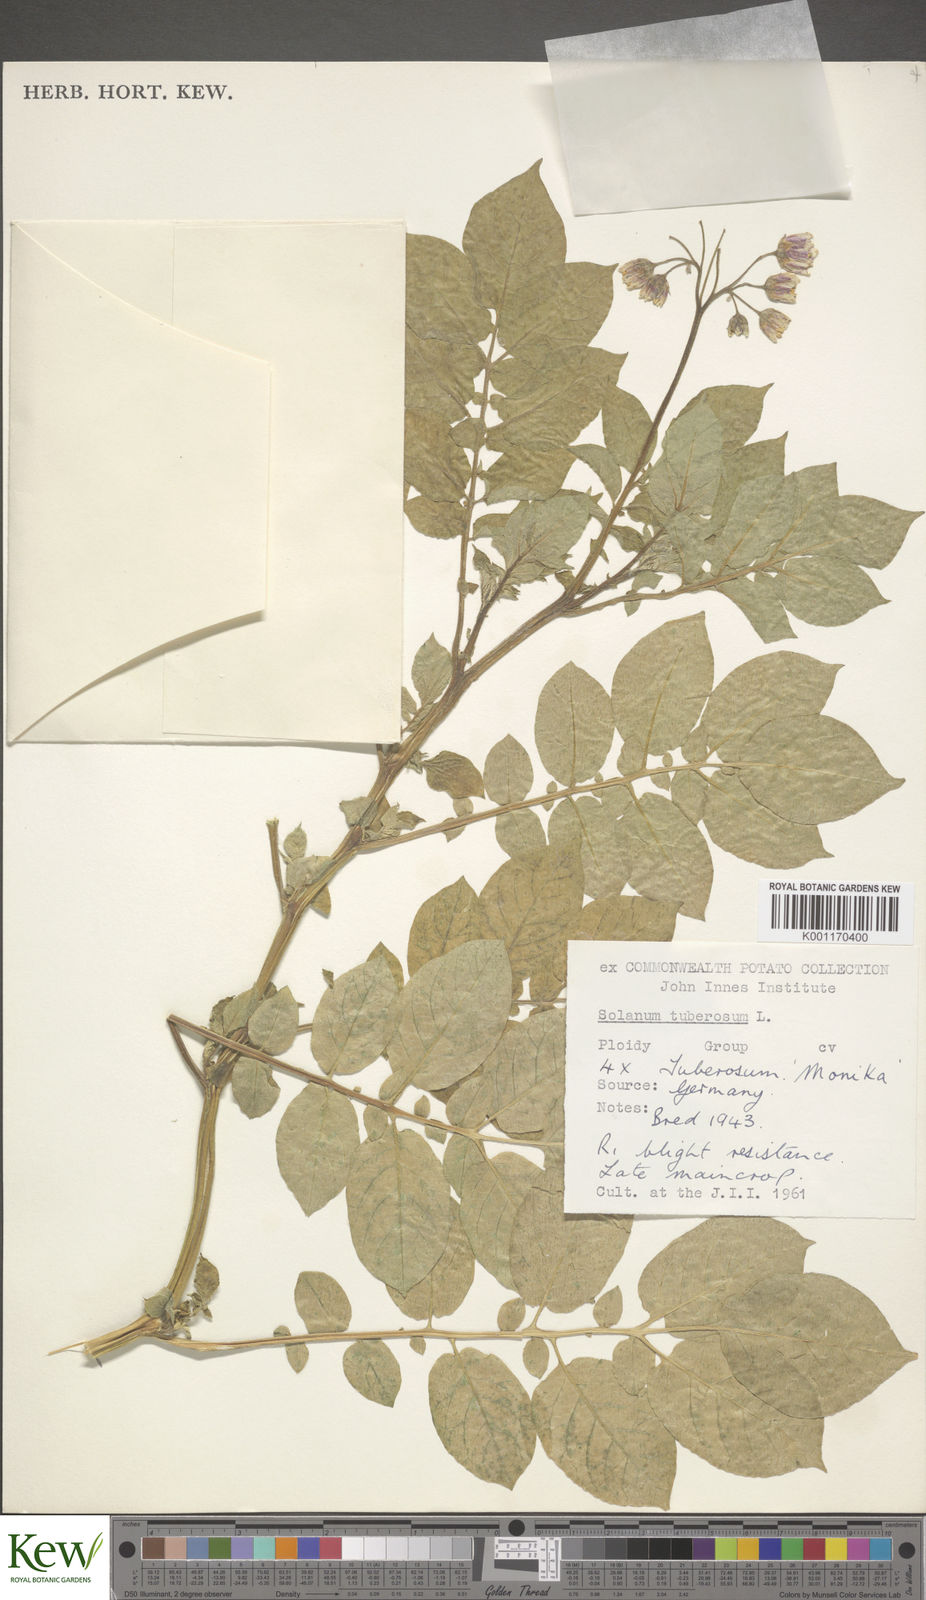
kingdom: Plantae
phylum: Tracheophyta
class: Magnoliopsida
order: Solanales
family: Solanaceae
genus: Solanum
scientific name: Solanum tuberosum
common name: Potato
